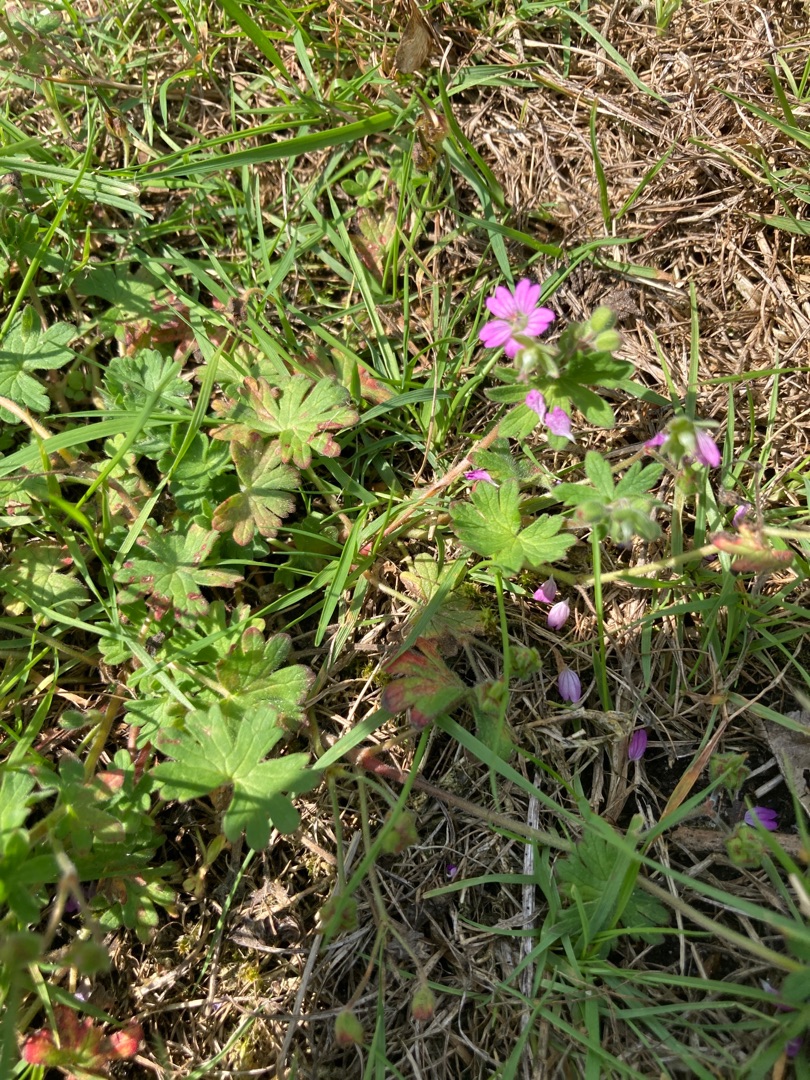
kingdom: Plantae
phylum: Tracheophyta
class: Magnoliopsida
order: Geraniales
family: Geraniaceae
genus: Geranium
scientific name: Geranium molle
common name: Blød storkenæb
